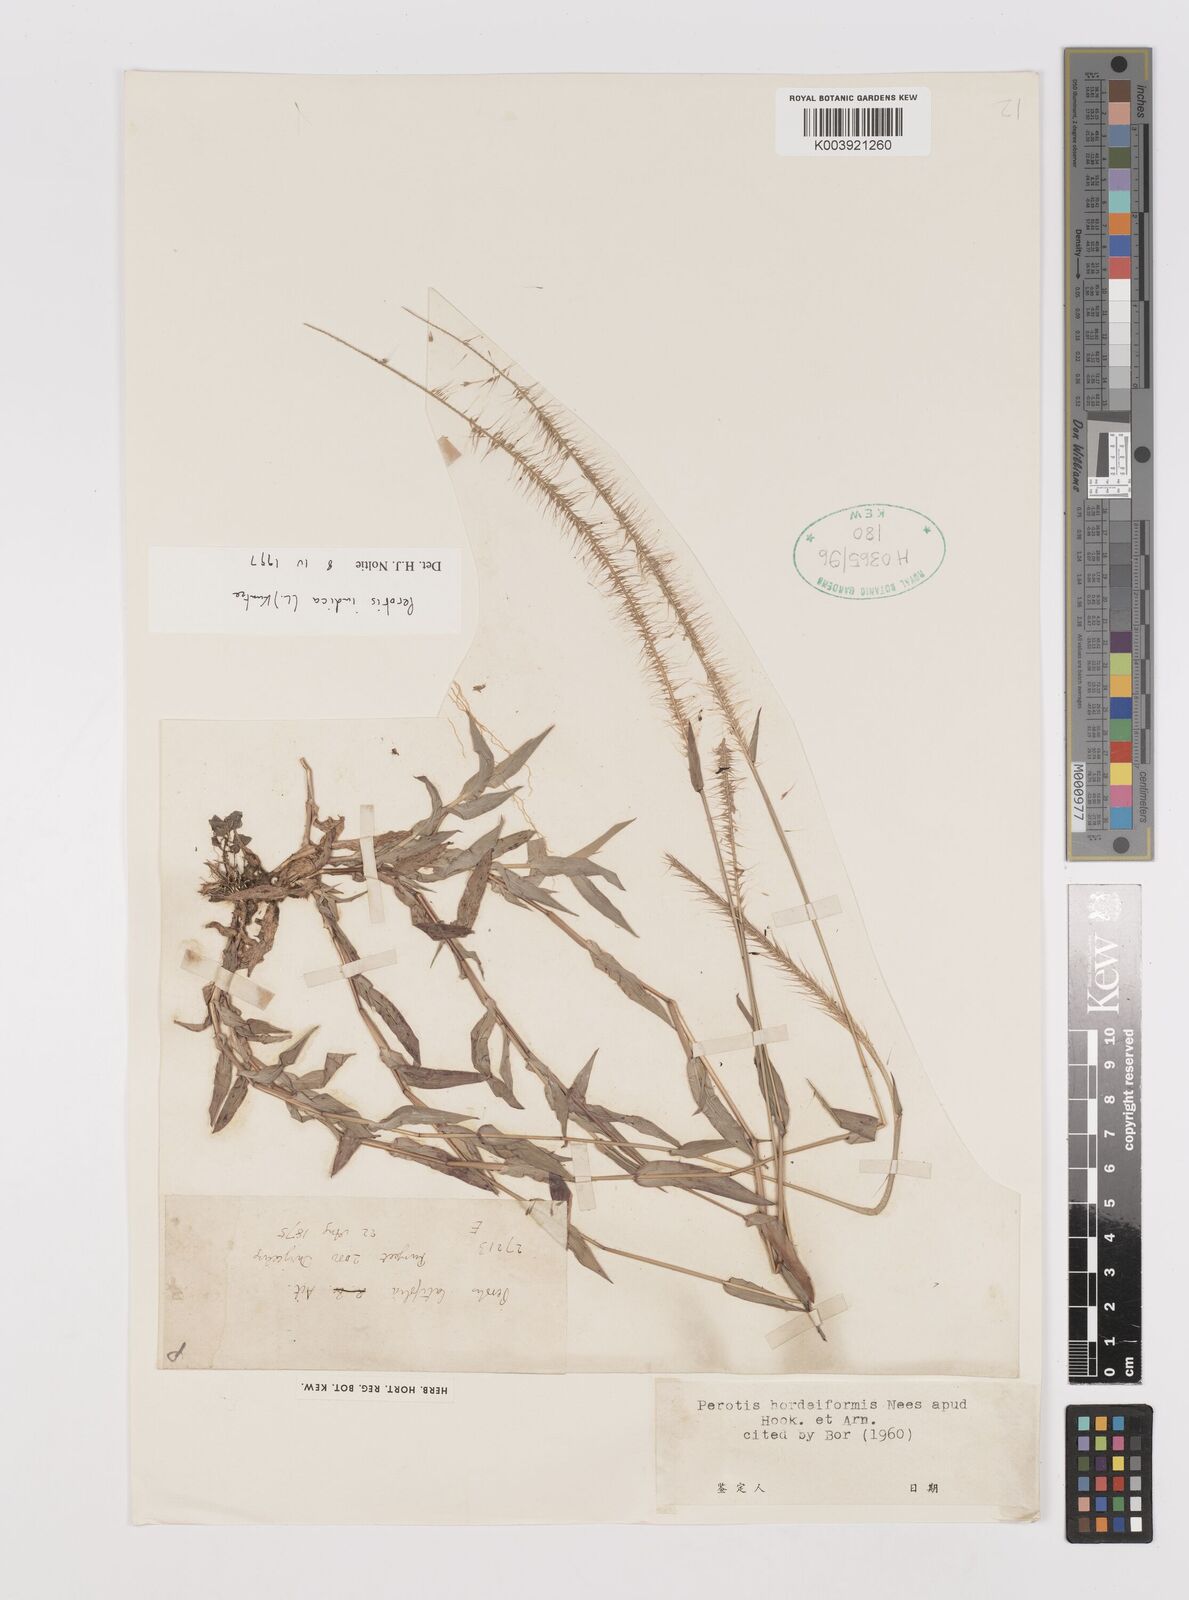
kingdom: Plantae
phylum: Tracheophyta
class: Liliopsida
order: Poales
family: Poaceae
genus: Perotis
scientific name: Perotis hordeiformis
